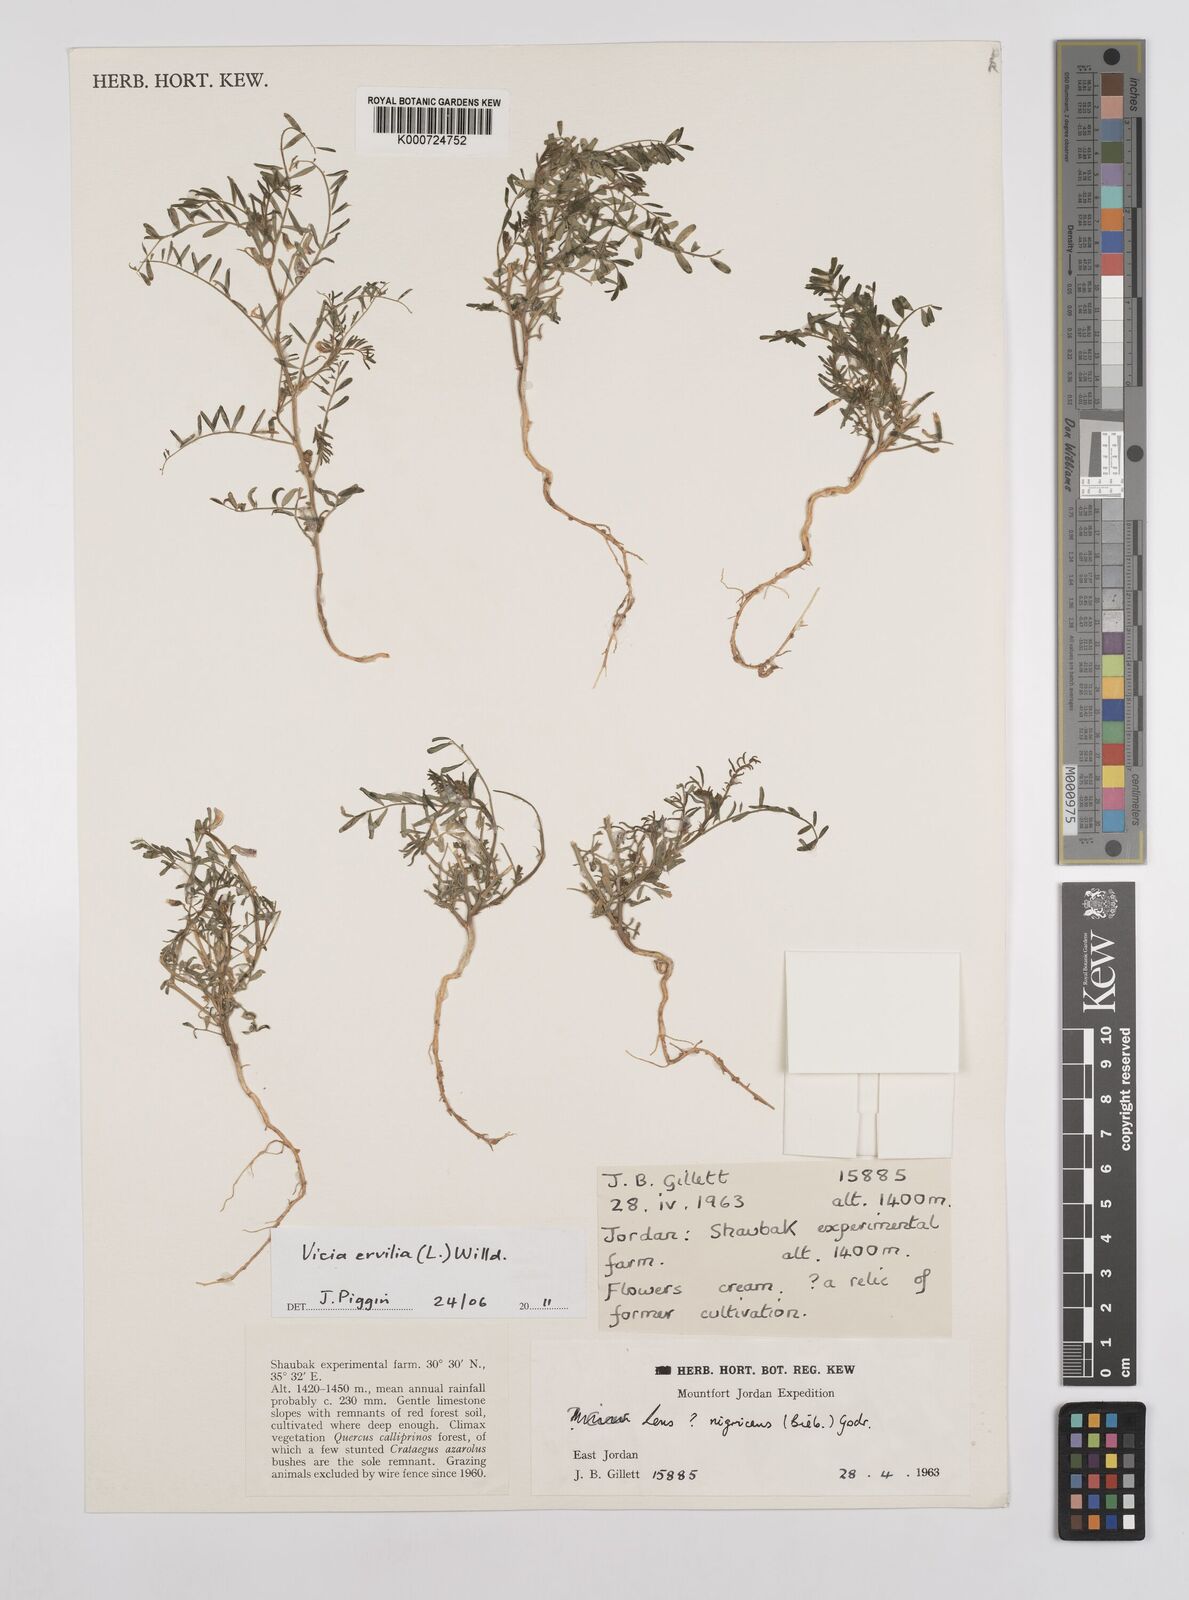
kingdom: Plantae
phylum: Tracheophyta
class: Magnoliopsida
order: Fabales
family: Fabaceae
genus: Vicia
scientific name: Vicia ervilia
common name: Bitter vetch
